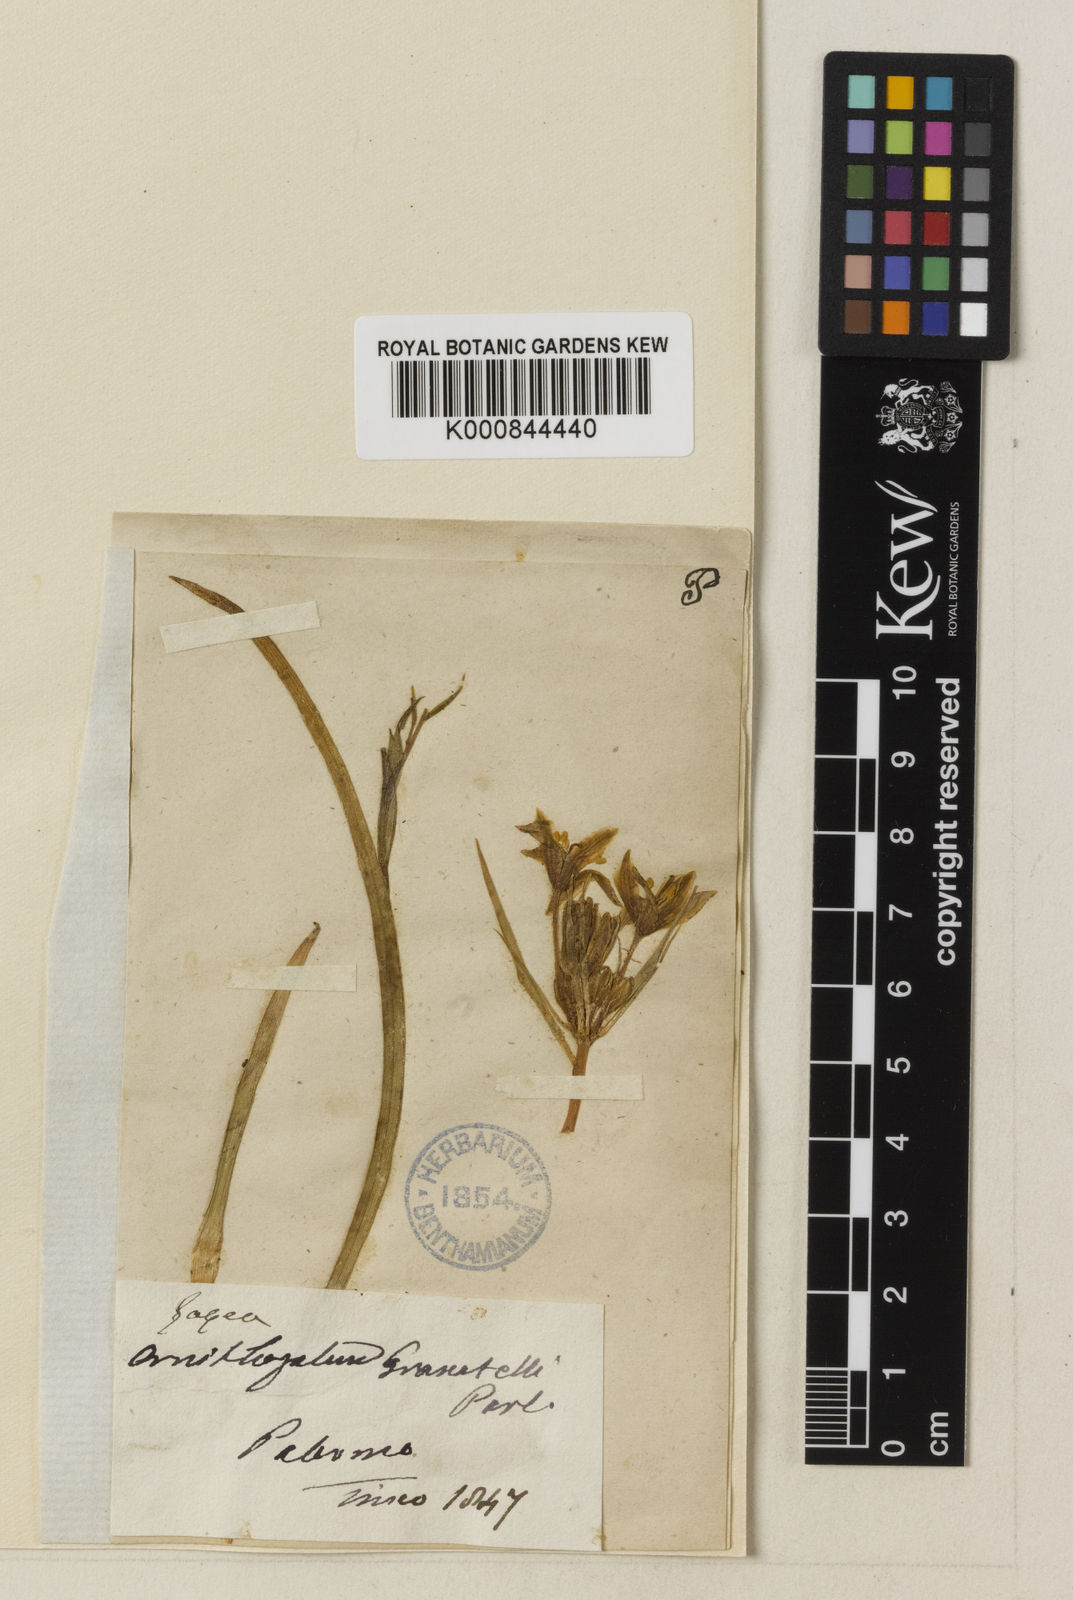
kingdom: Plantae
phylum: Tracheophyta
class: Liliopsida
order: Liliales
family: Liliaceae
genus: Gagea
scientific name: Gagea
